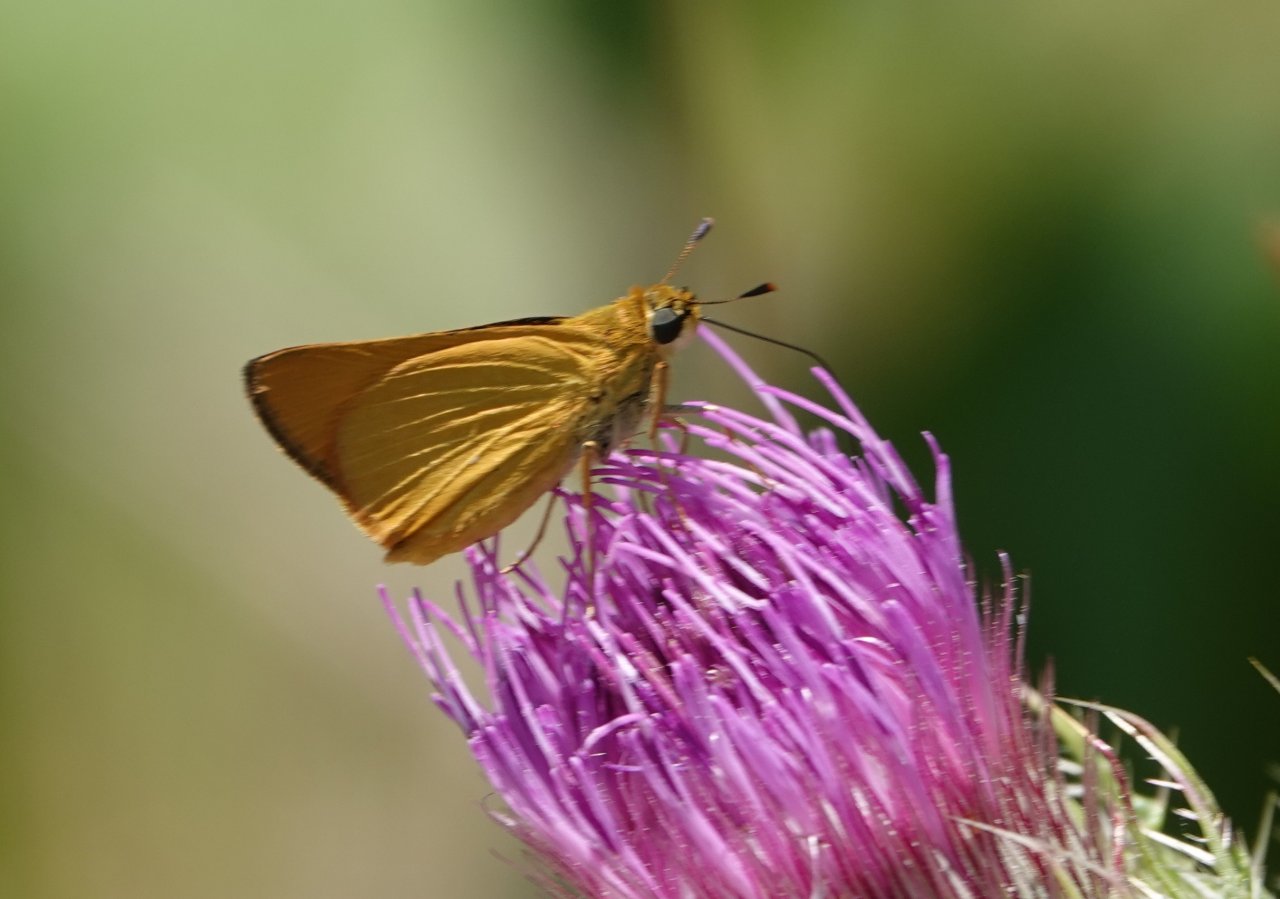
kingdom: Animalia
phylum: Arthropoda
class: Insecta
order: Lepidoptera
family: Hesperiidae
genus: Atrytone
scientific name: Atrytone delaware
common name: Delaware Skipper
